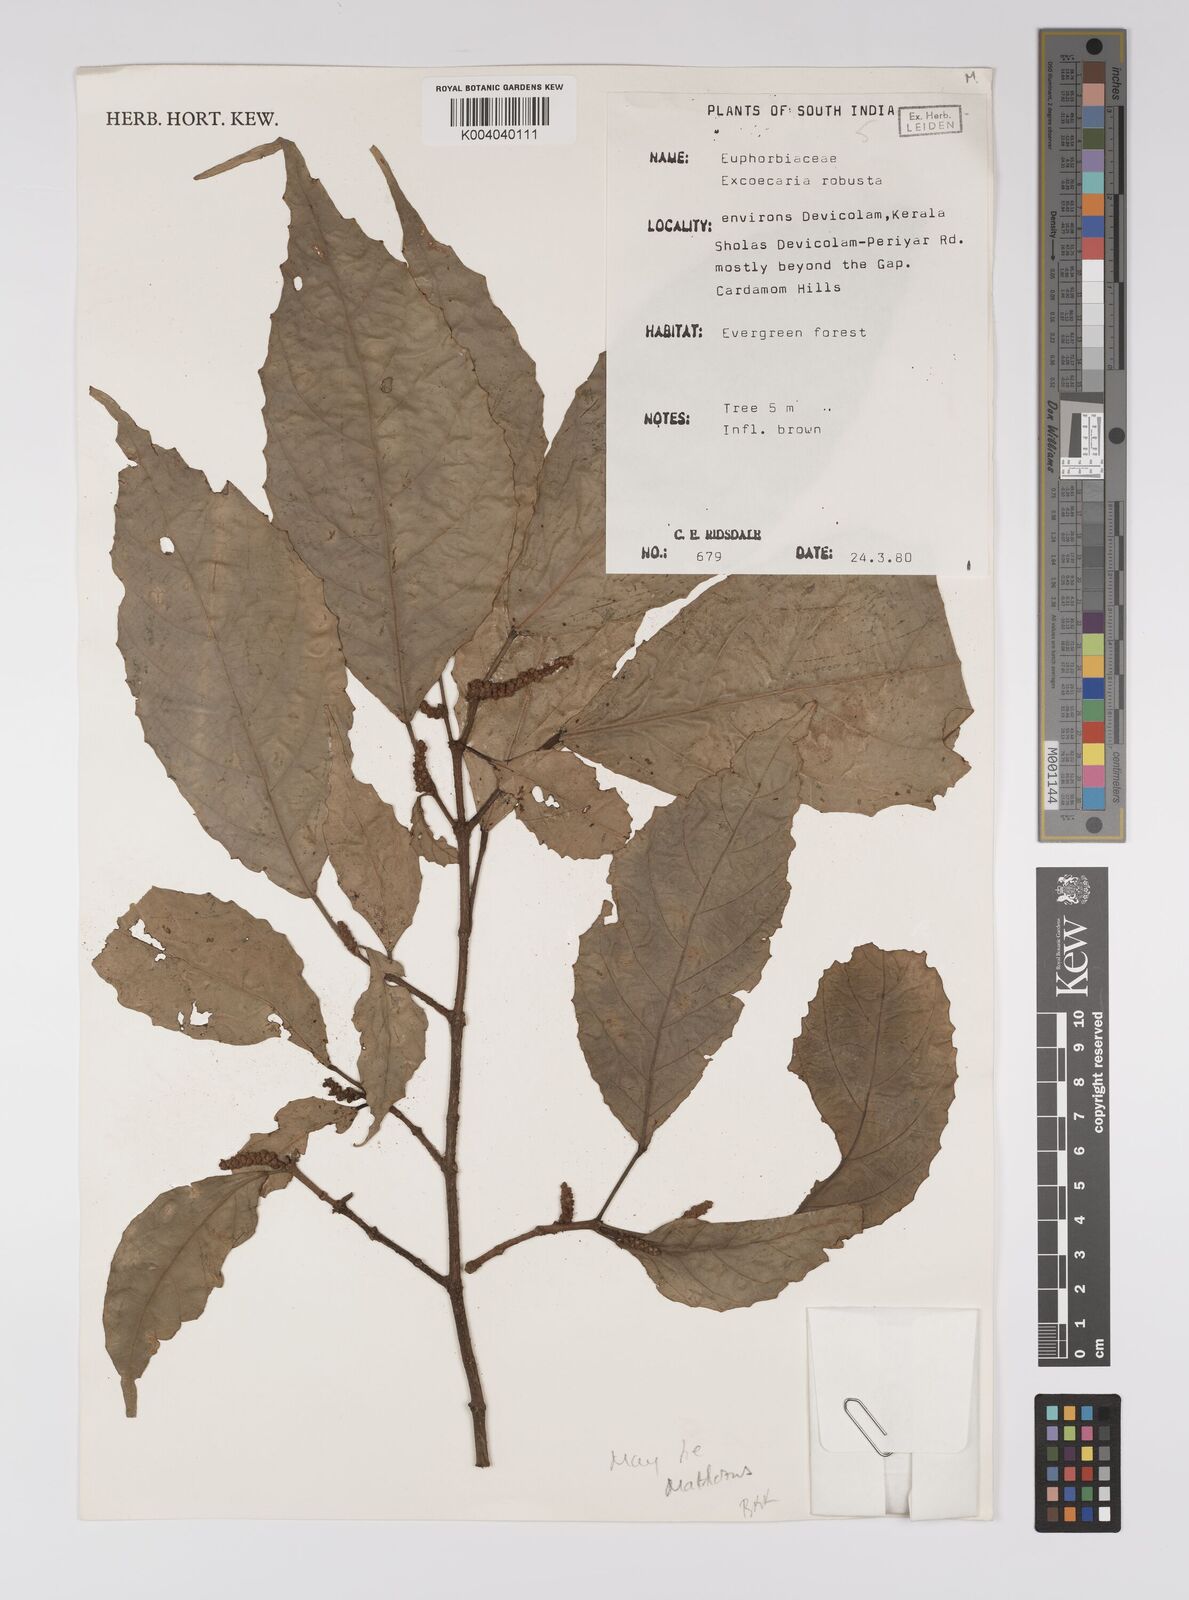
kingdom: Plantae
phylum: Tracheophyta
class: Magnoliopsida
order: Malpighiales
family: Euphorbiaceae
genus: Excoecaria
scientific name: Excoecaria oppositifolia
